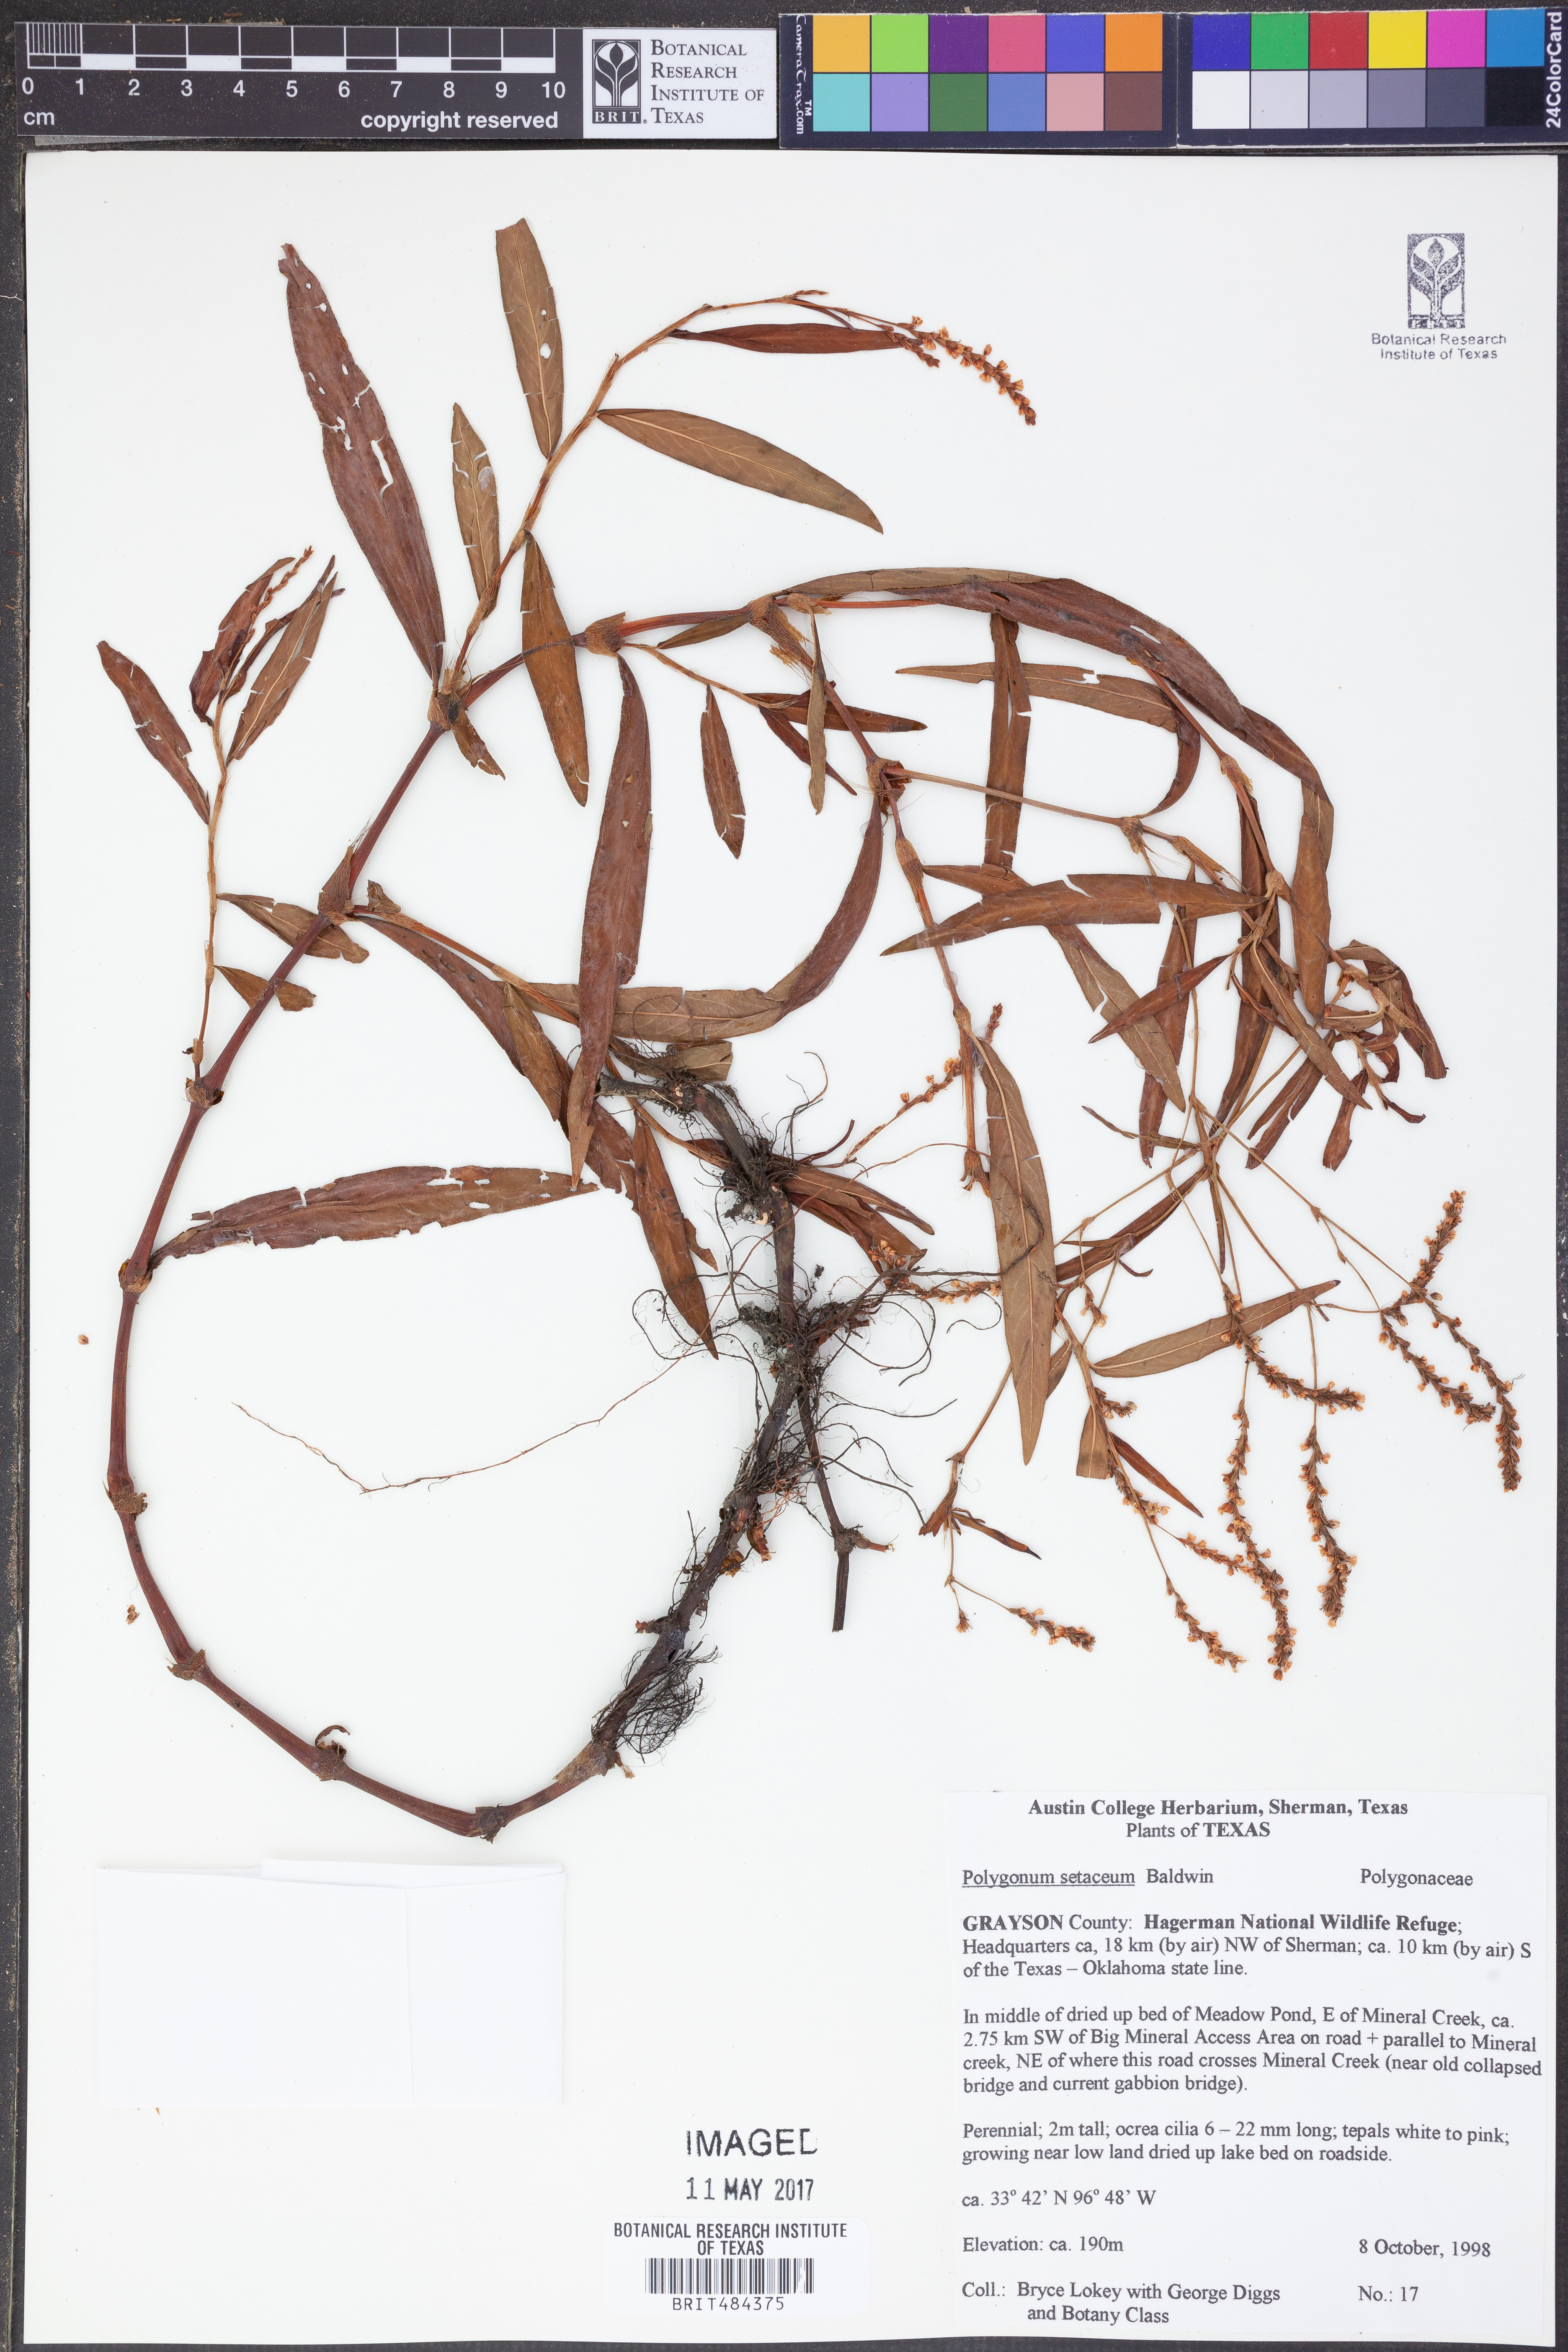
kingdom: Plantae
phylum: Tracheophyta
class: Magnoliopsida
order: Caryophyllales
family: Polygonaceae
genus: Persicaria
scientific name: Persicaria setacea
